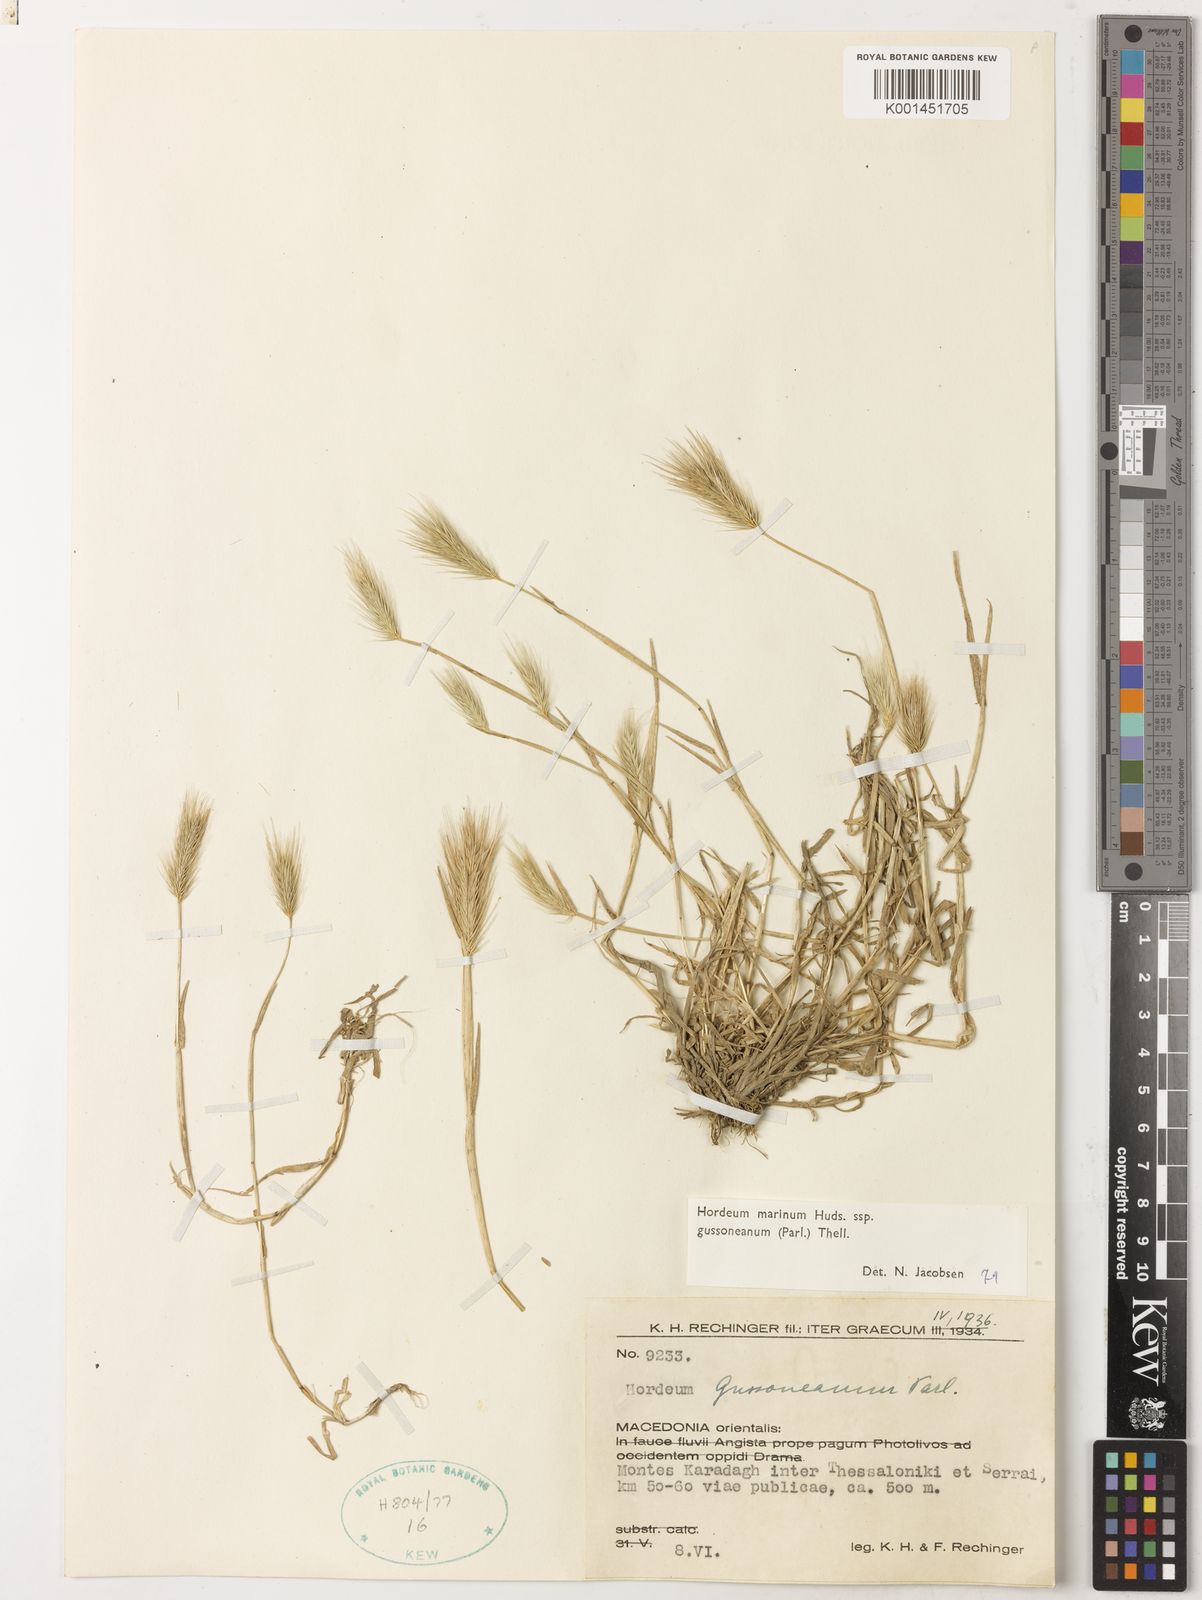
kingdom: Plantae
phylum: Tracheophyta
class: Liliopsida
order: Poales
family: Poaceae
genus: Hordeum
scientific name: Hordeum marinum
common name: Sea barley
